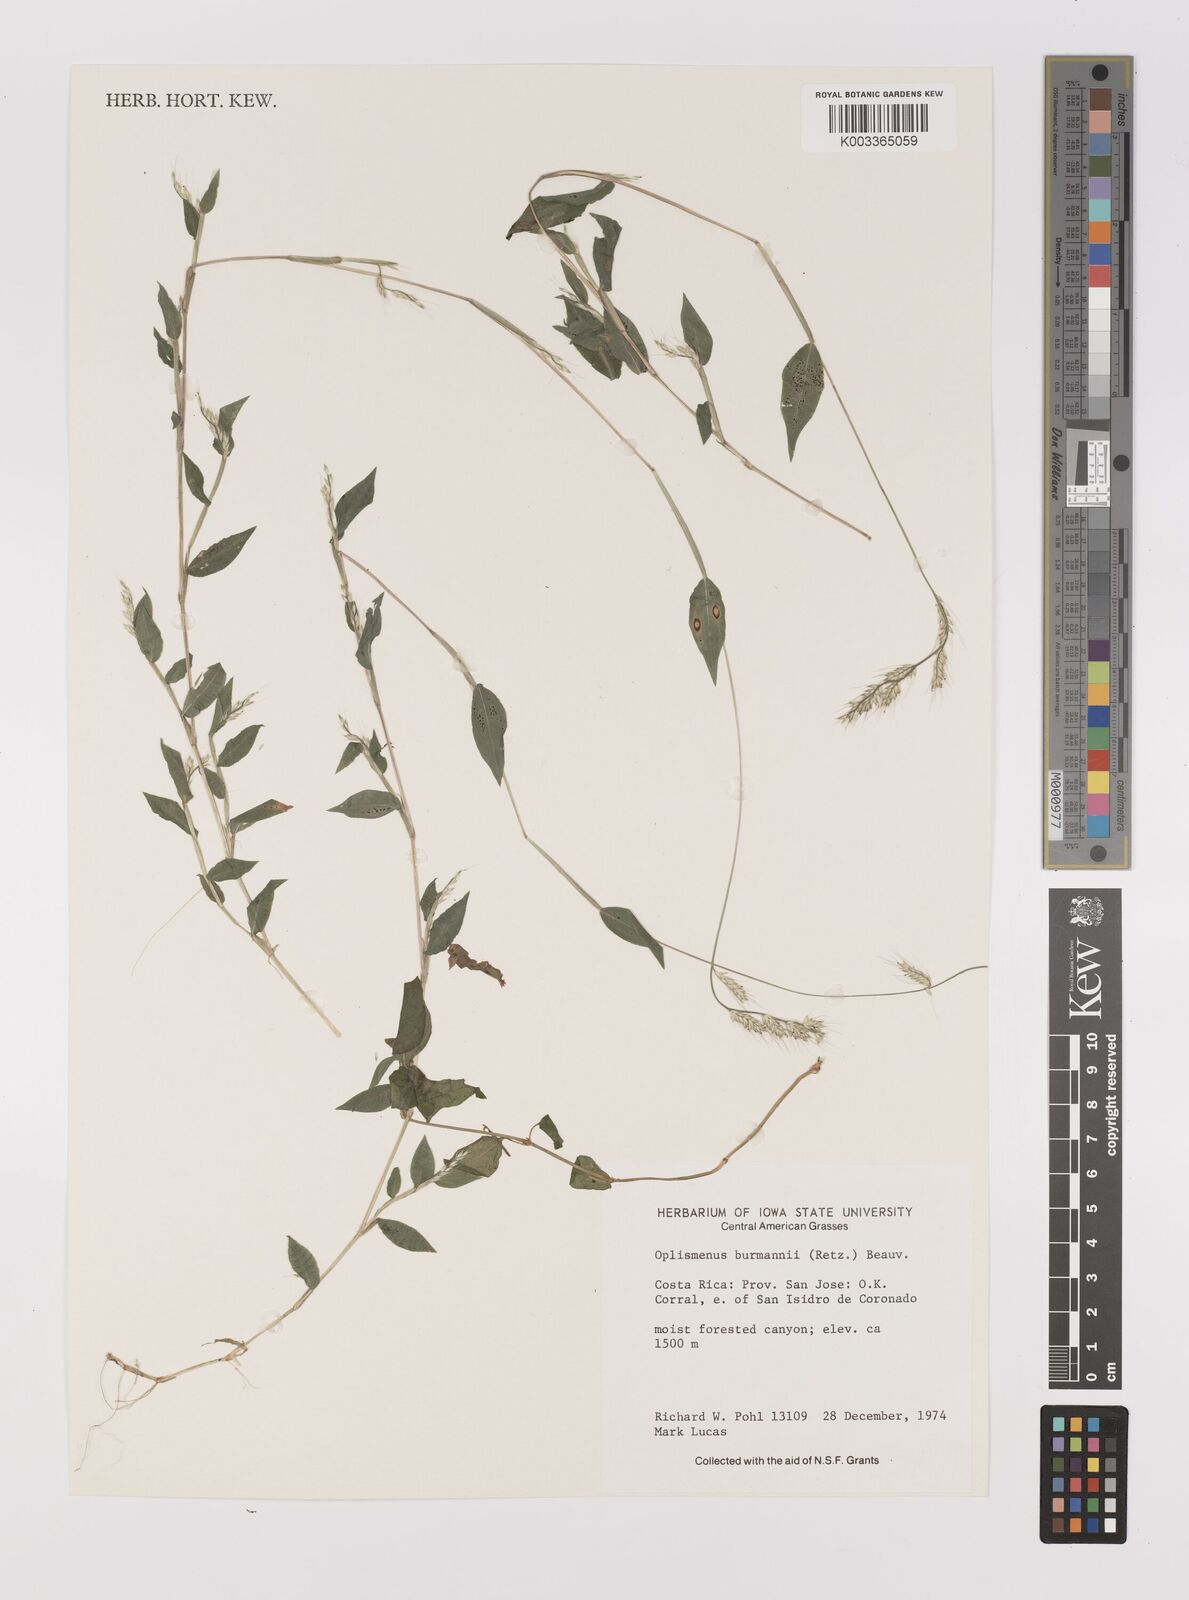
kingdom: Plantae
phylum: Tracheophyta
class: Liliopsida
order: Poales
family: Poaceae
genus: Oplismenus
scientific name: Oplismenus burmanni
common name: Burmann's basketgrass
